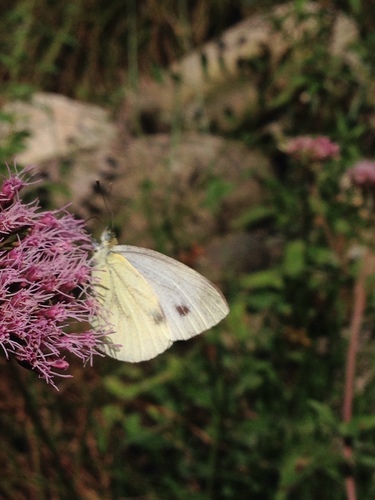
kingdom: Animalia
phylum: Arthropoda
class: Insecta
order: Lepidoptera
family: Pieridae
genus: Pieris
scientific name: Pieris napi
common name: Green-veined white
